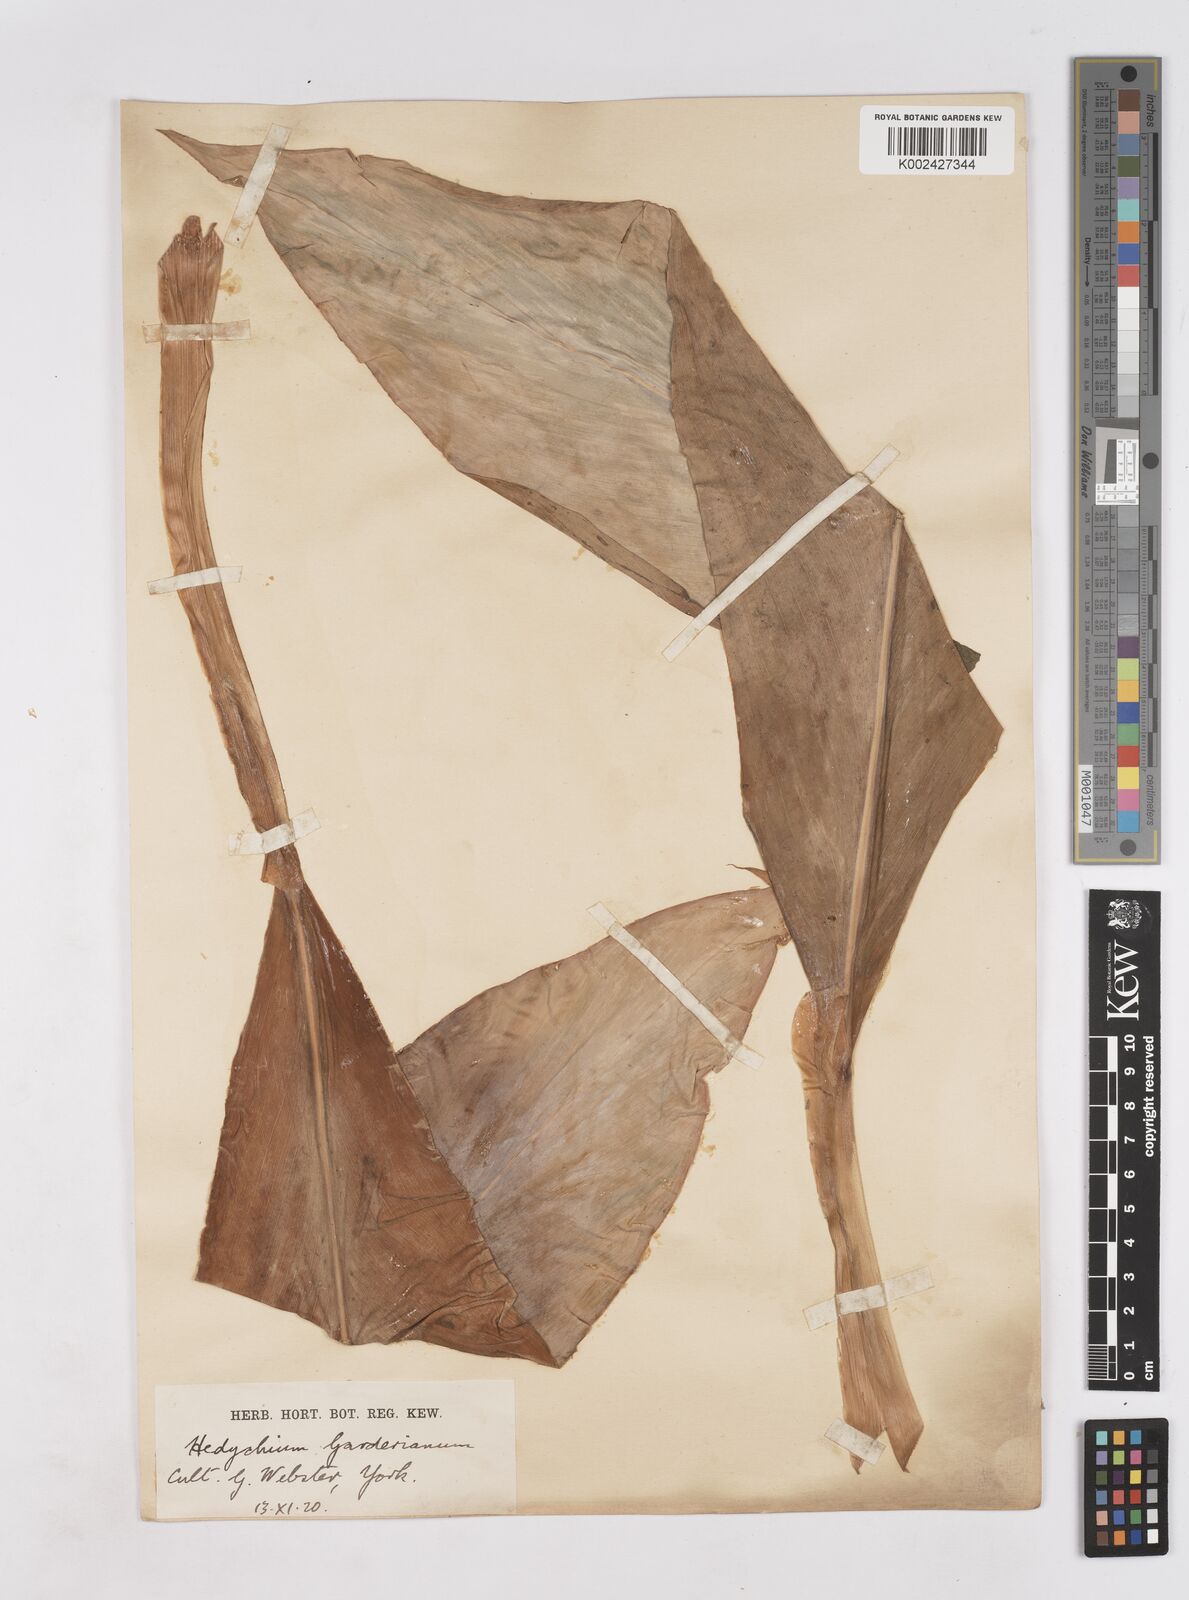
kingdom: Plantae
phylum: Tracheophyta
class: Liliopsida
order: Zingiberales
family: Zingiberaceae
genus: Hedychium
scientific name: Hedychium gardnerianum
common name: Himalayan ginger
